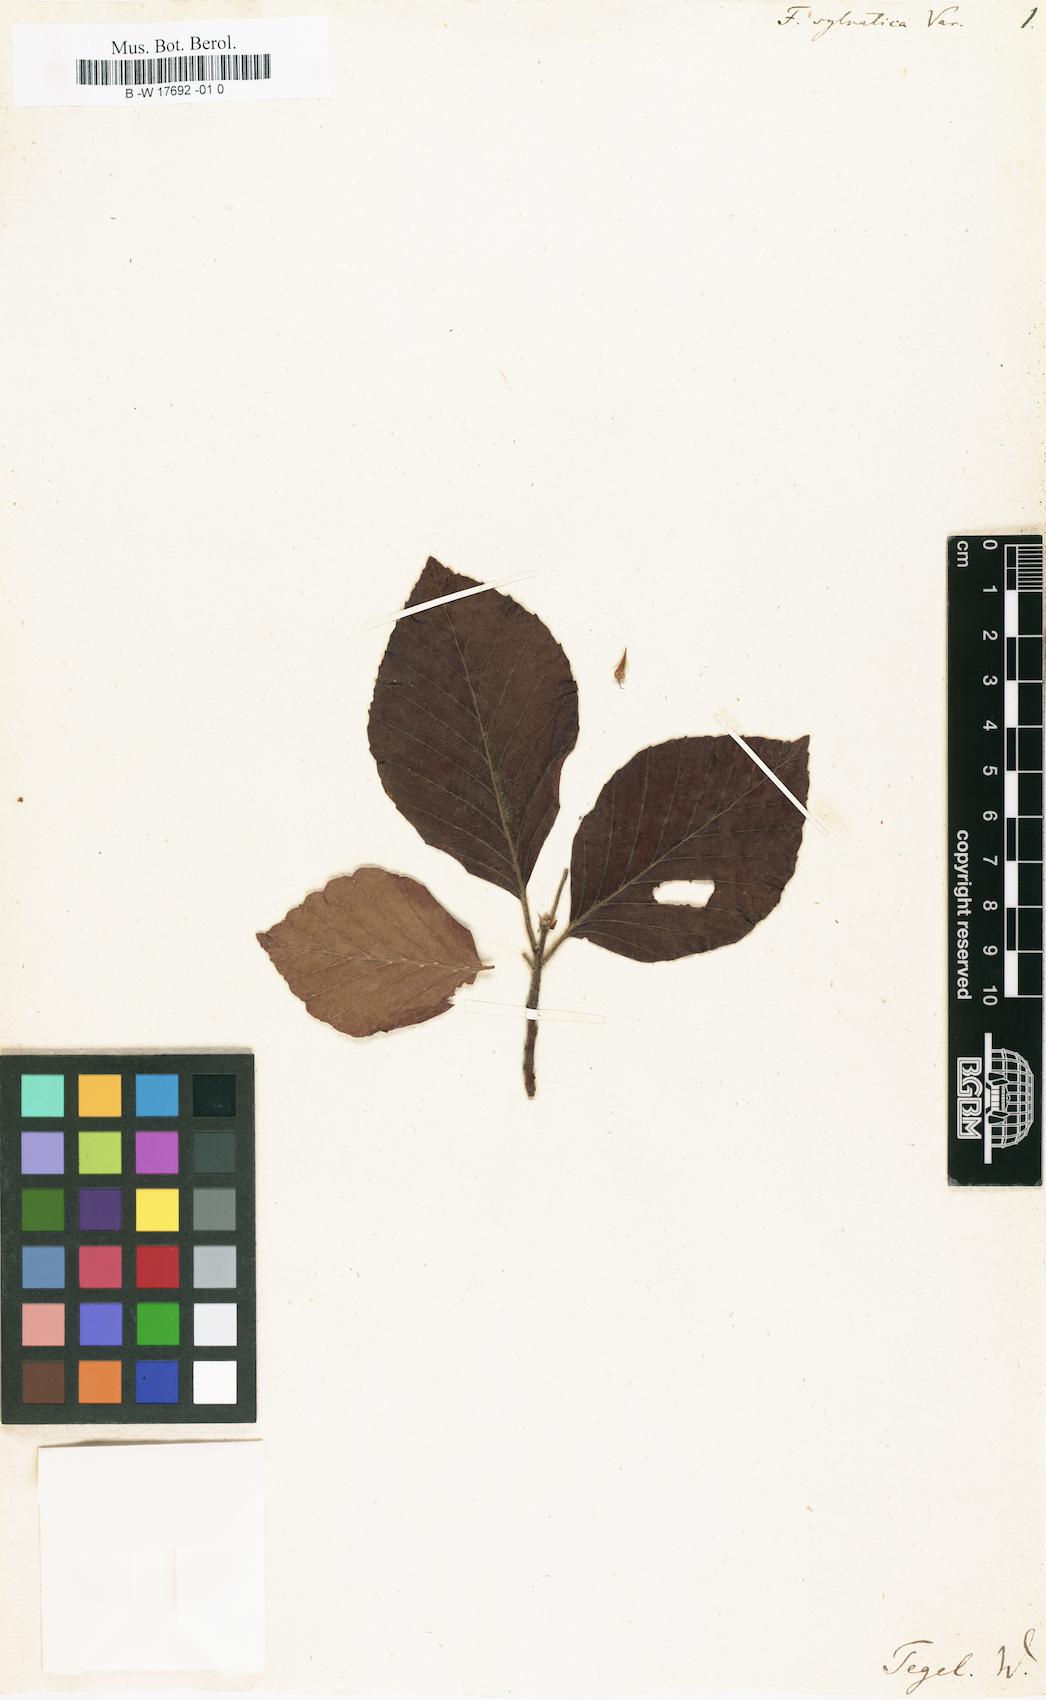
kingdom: Plantae
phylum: Tracheophyta
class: Magnoliopsida
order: Fagales
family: Fagaceae
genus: Fagus
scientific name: Fagus sylvatica
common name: Beech
